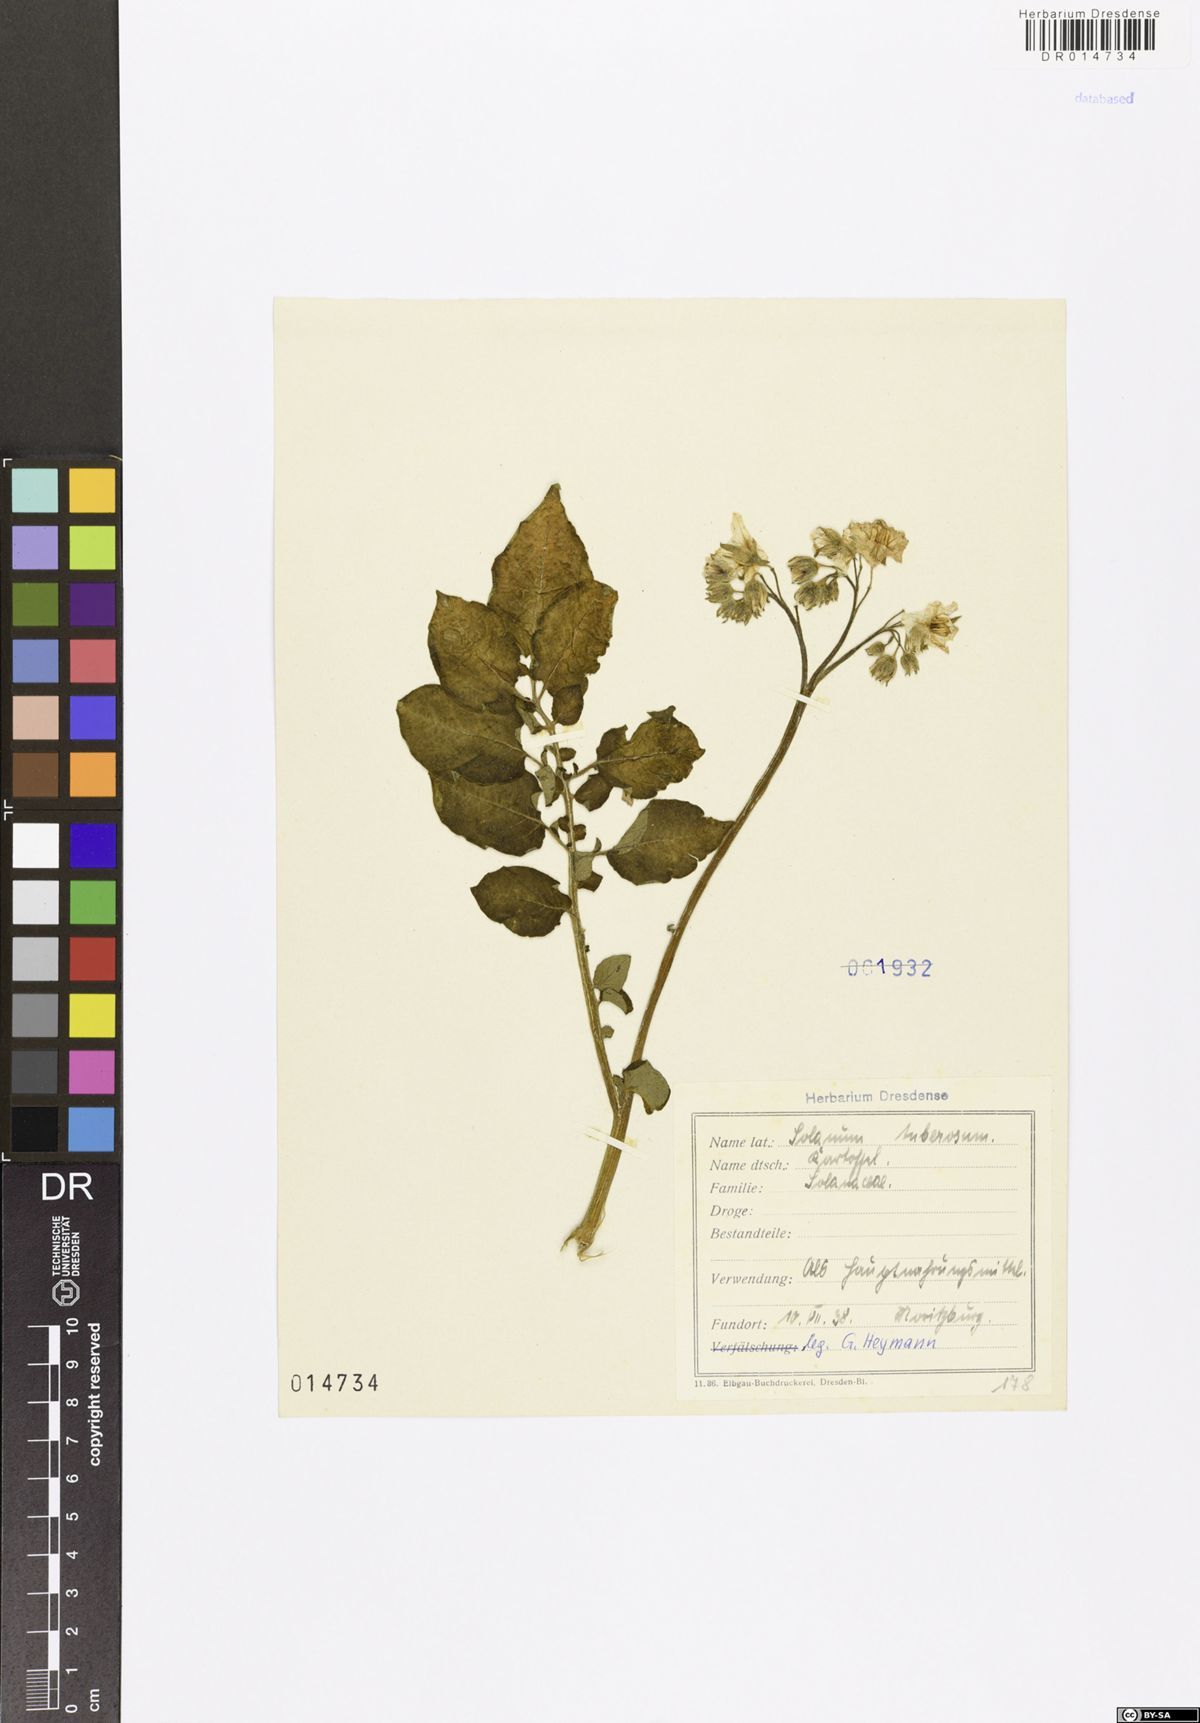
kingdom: Plantae
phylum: Tracheophyta
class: Magnoliopsida
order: Solanales
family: Solanaceae
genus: Solanum
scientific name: Solanum tuberosum
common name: Potato
